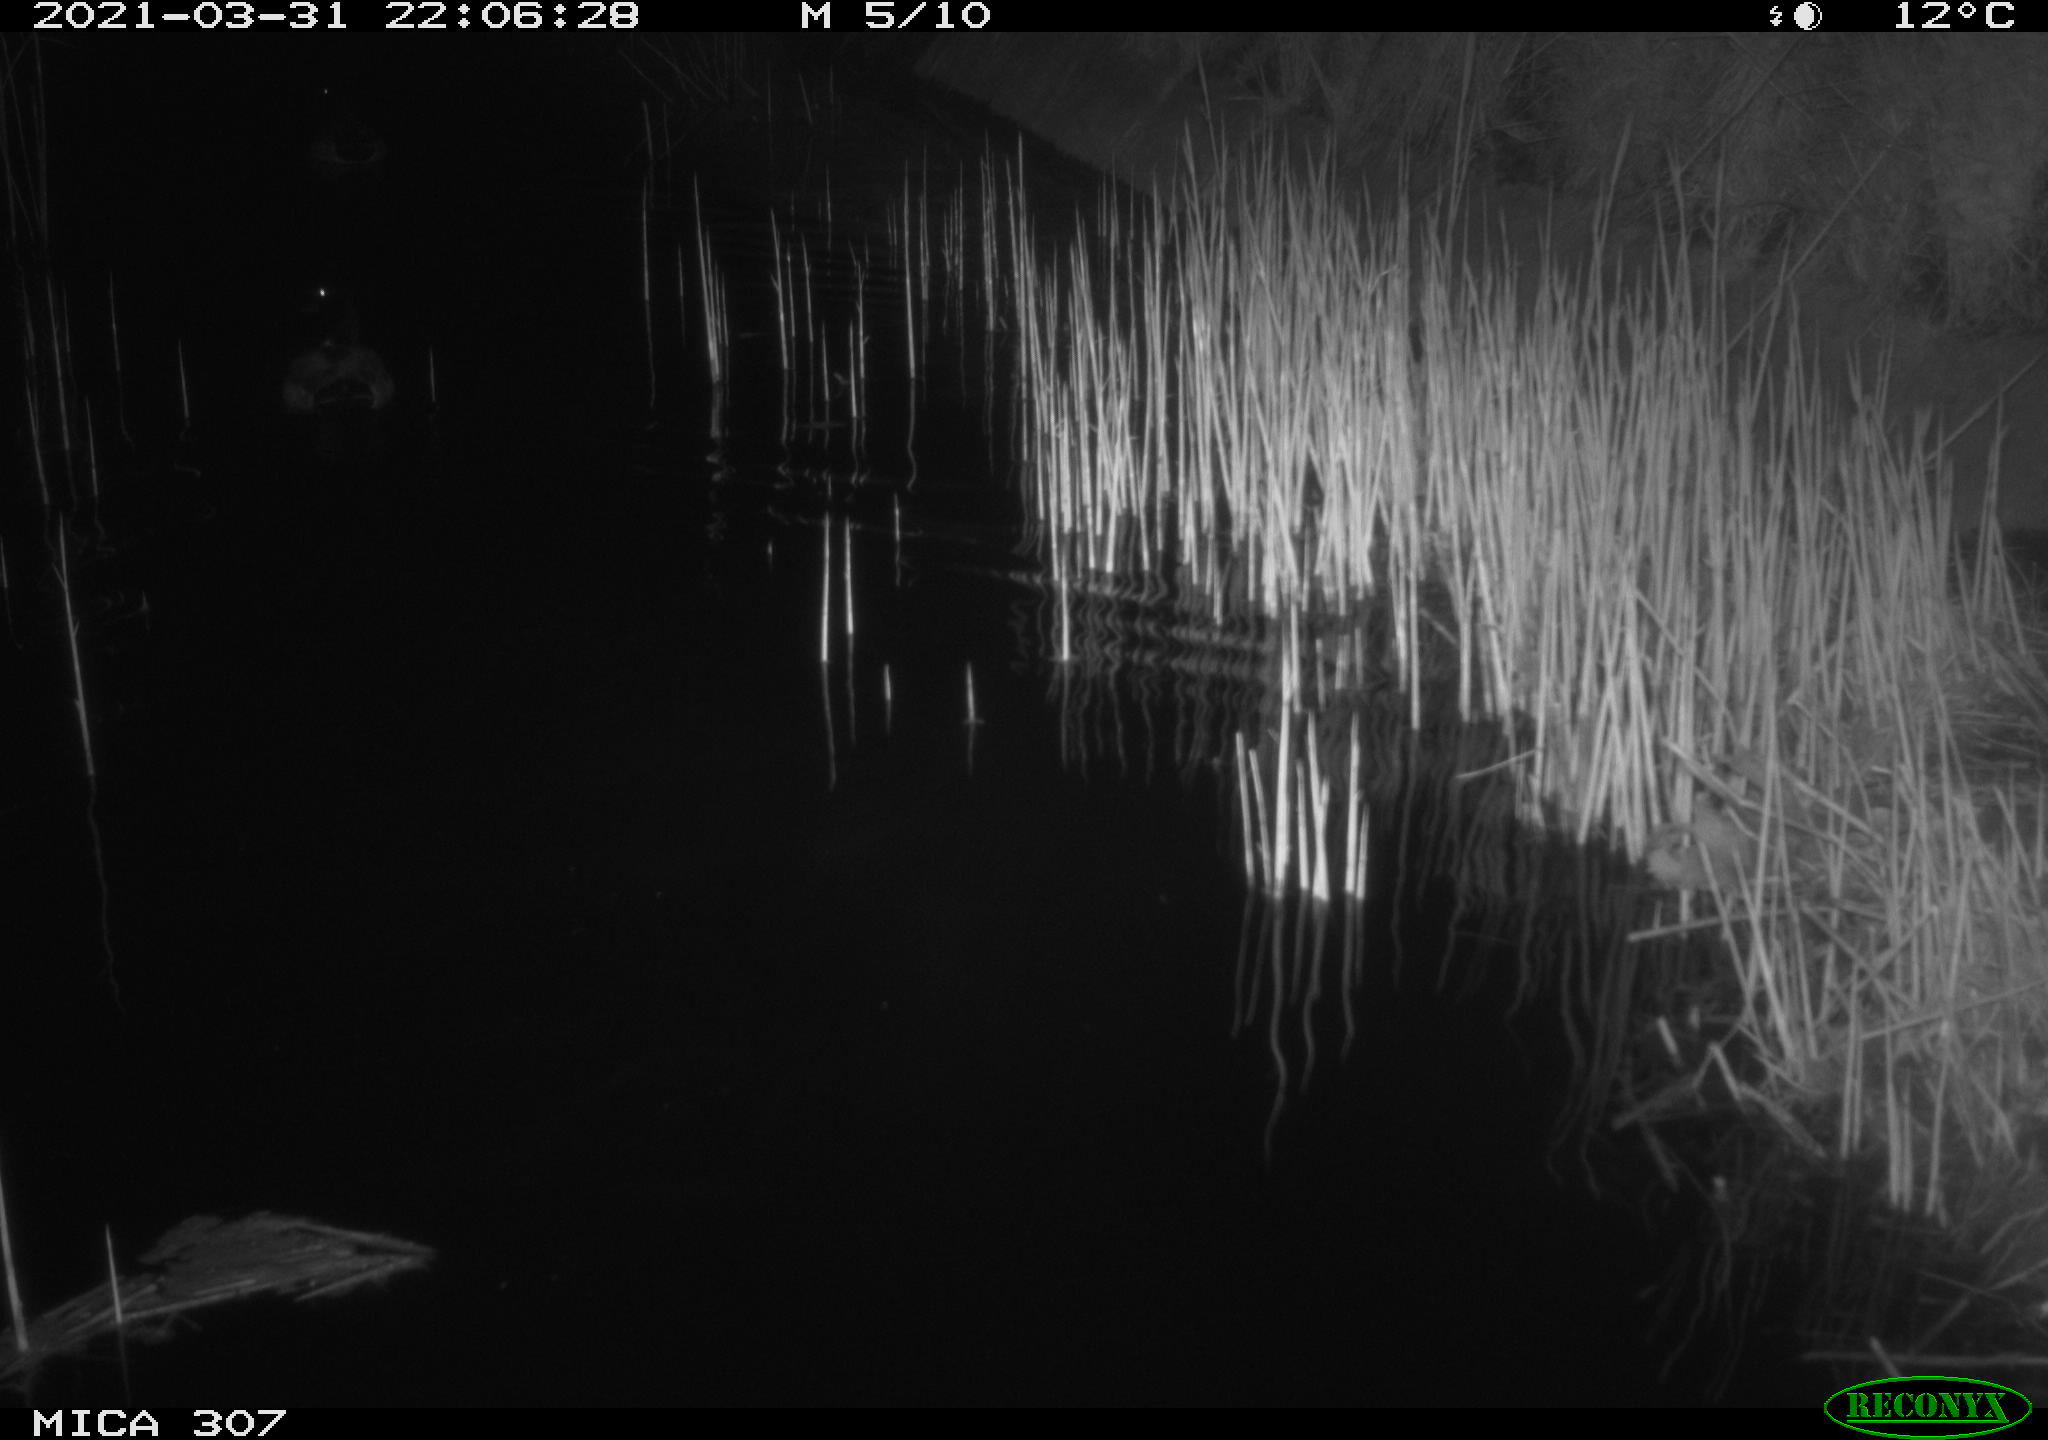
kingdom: Animalia
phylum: Chordata
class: Aves
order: Anseriformes
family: Anatidae
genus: Anas
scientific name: Anas platyrhynchos
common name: Mallard
